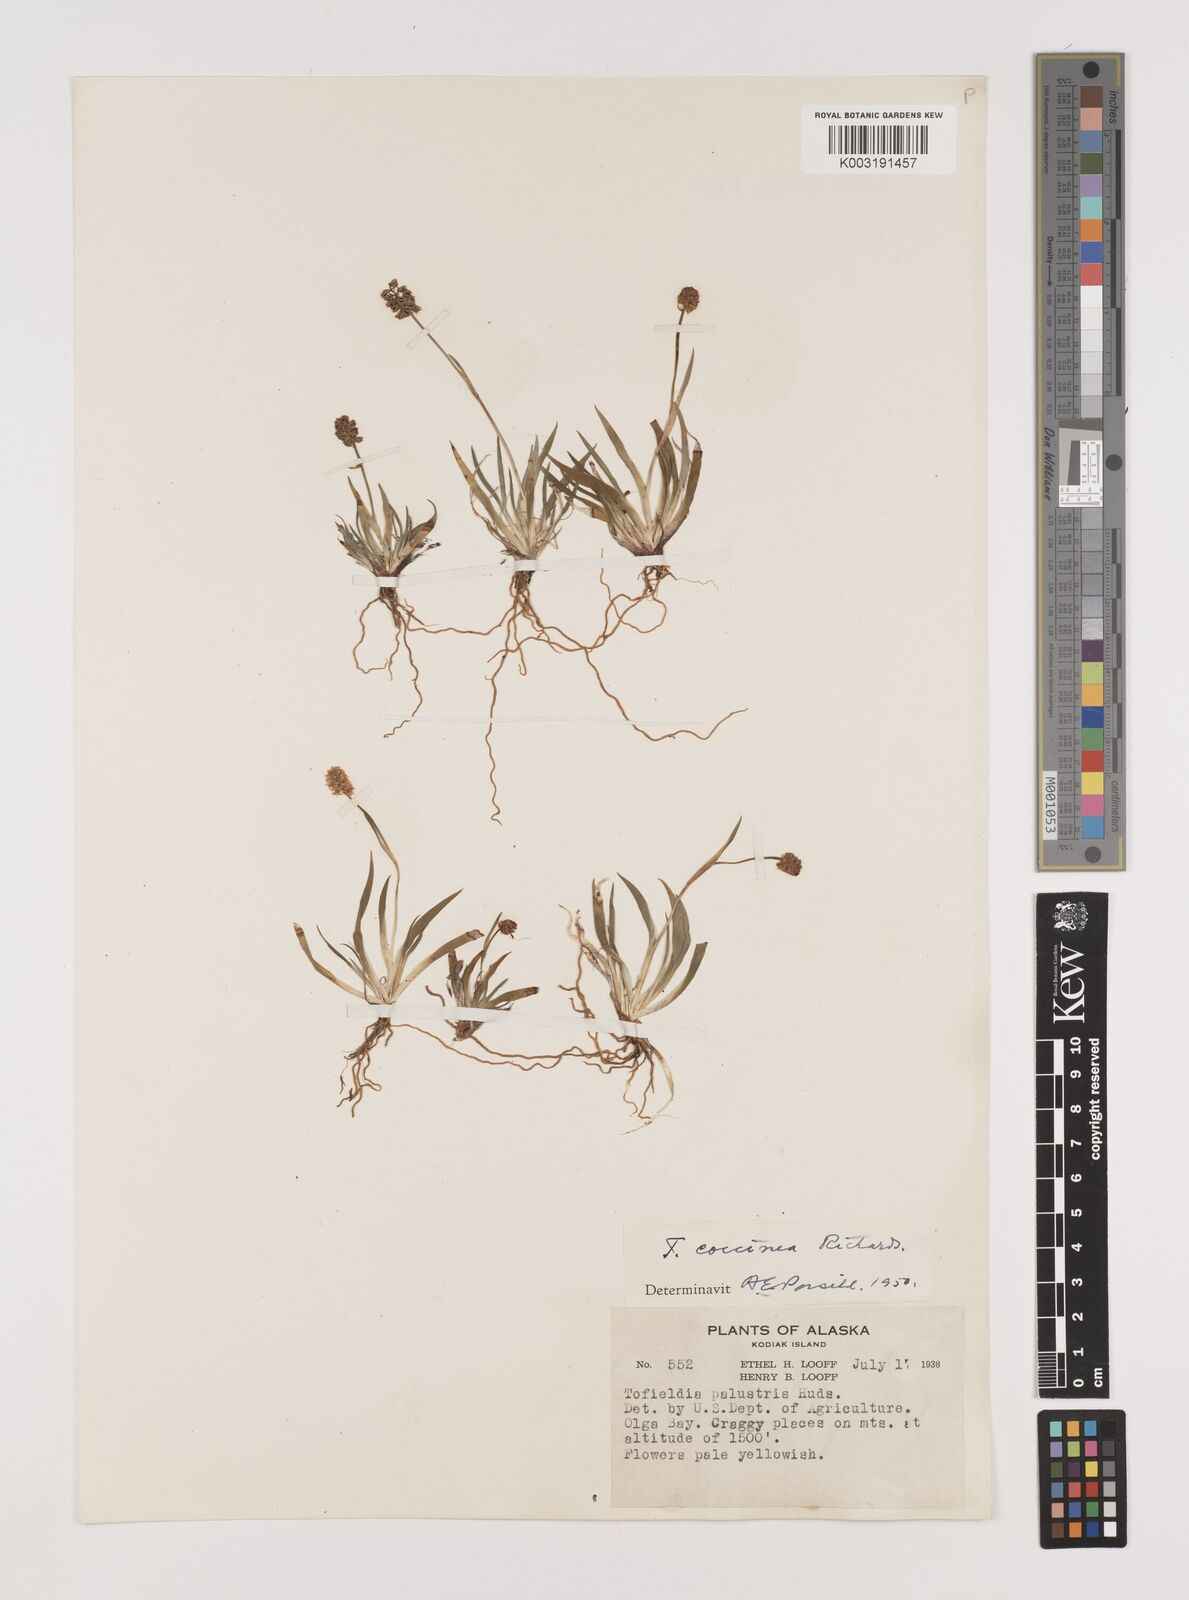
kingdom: Plantae
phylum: Tracheophyta
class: Liliopsida
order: Alismatales
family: Tofieldiaceae
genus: Tofieldia
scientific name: Tofieldia calyculata
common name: German-asphodel
